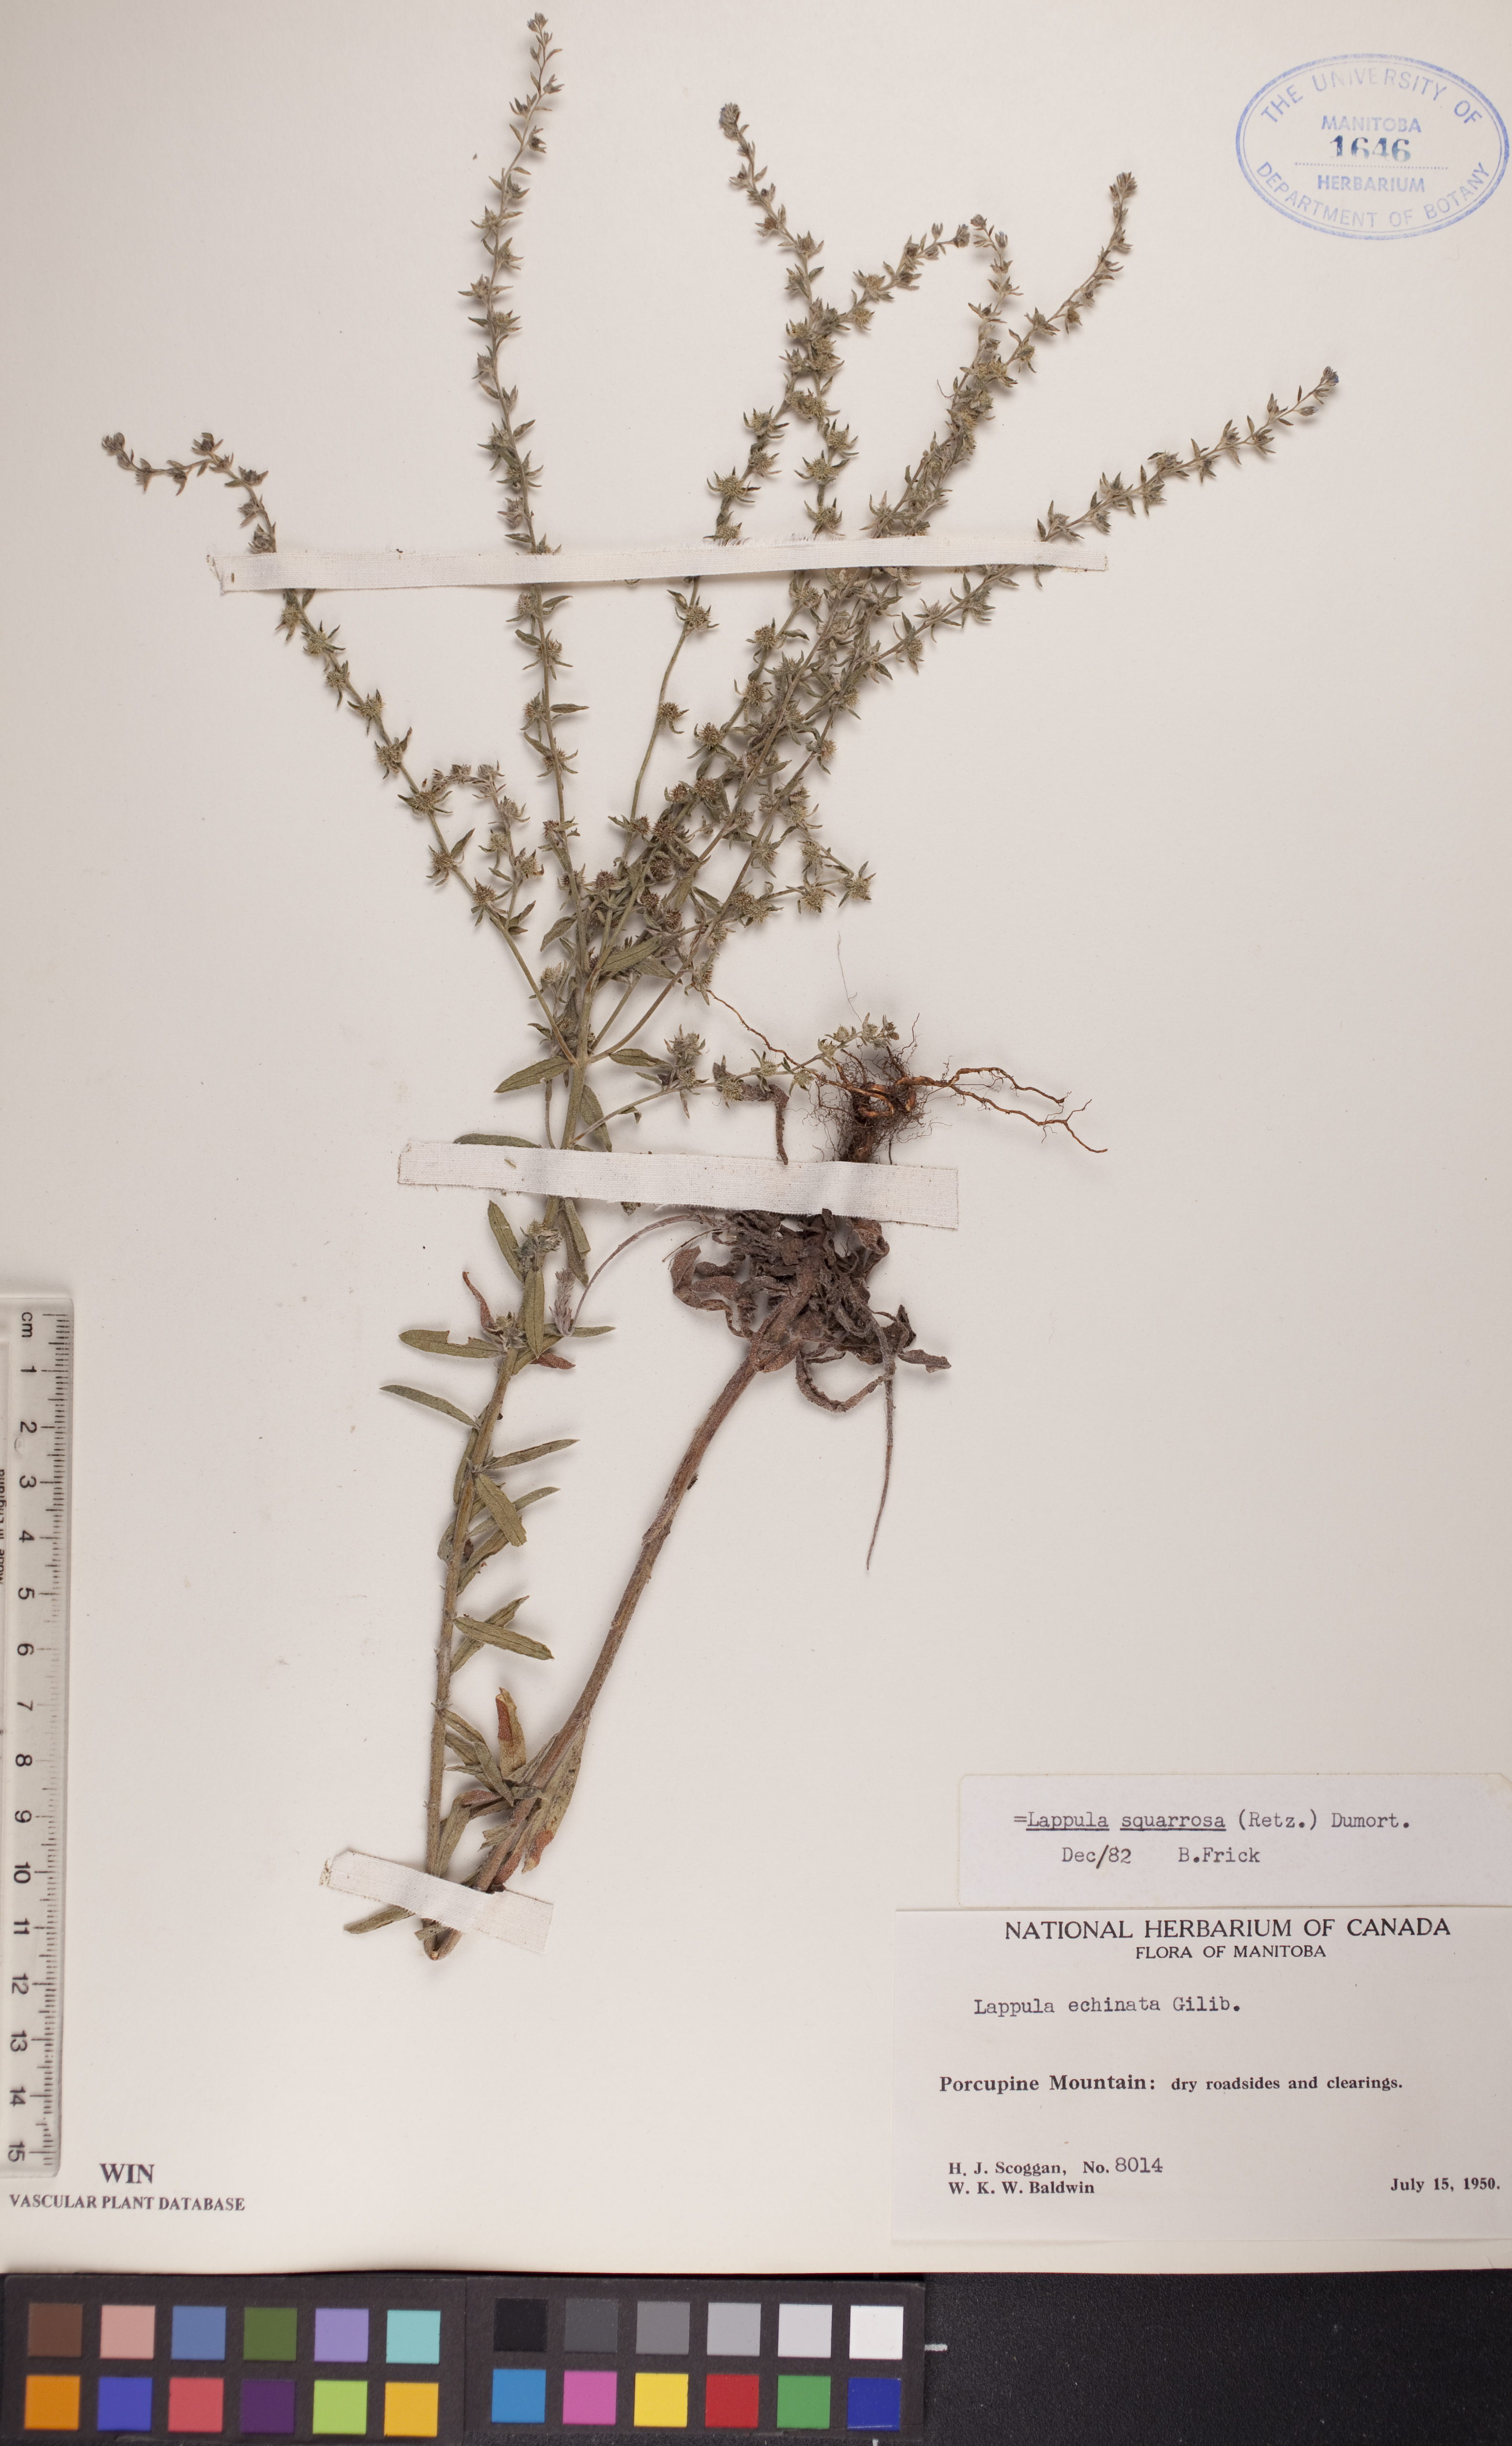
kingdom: Plantae
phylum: Tracheophyta
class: Magnoliopsida
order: Boraginales
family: Boraginaceae
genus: Lappula
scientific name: Lappula squarrosa
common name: European stickseed
